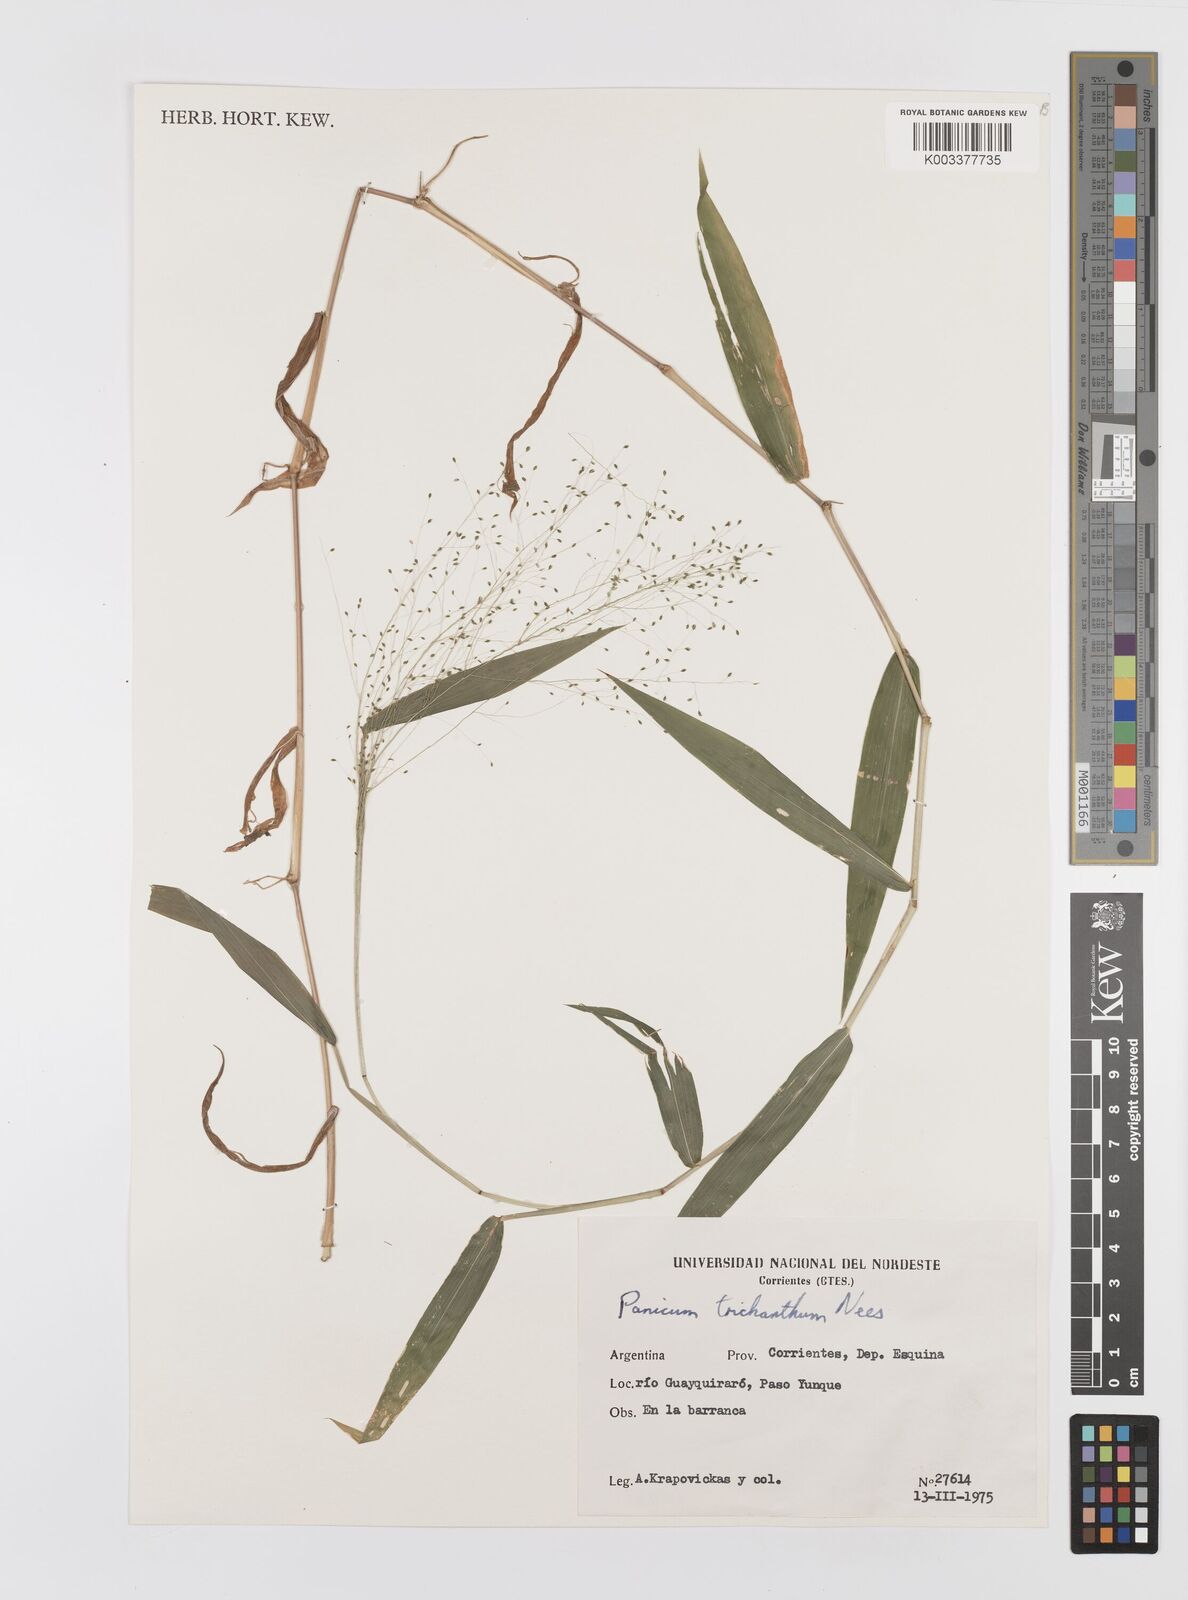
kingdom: Plantae
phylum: Tracheophyta
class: Liliopsida
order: Poales
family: Poaceae
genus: Panicum
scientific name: Panicum trichanthum
